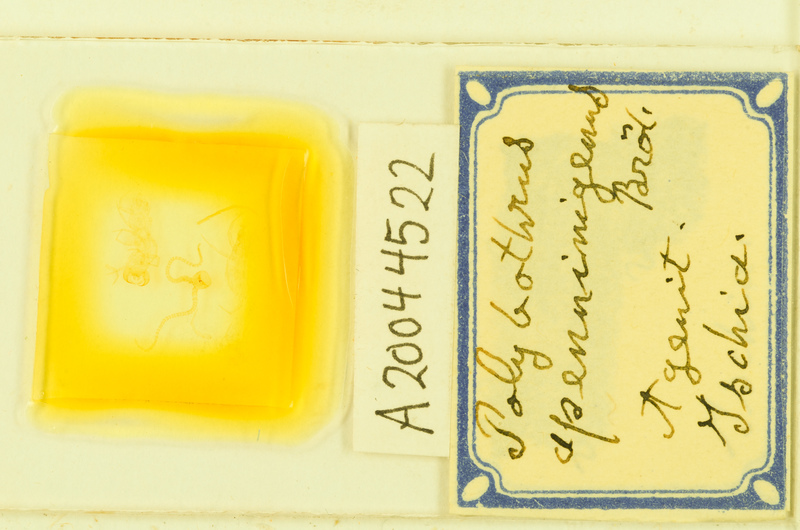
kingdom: Animalia
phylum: Arthropoda
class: Chilopoda
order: Lithobiomorpha
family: Lithobiidae
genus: Polybothrus
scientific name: Polybothrus
